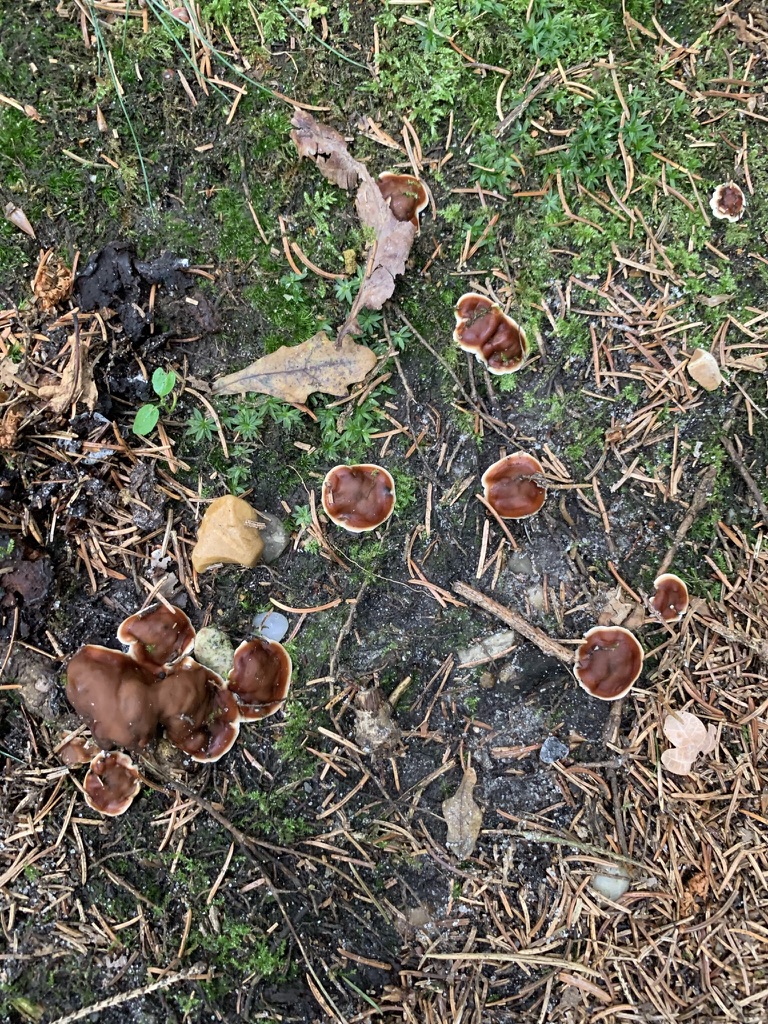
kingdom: Fungi
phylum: Ascomycota
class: Pezizomycetes
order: Pezizales
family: Rhizinaceae
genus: Rhizina
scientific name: Rhizina undulata
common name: rodmorkel
